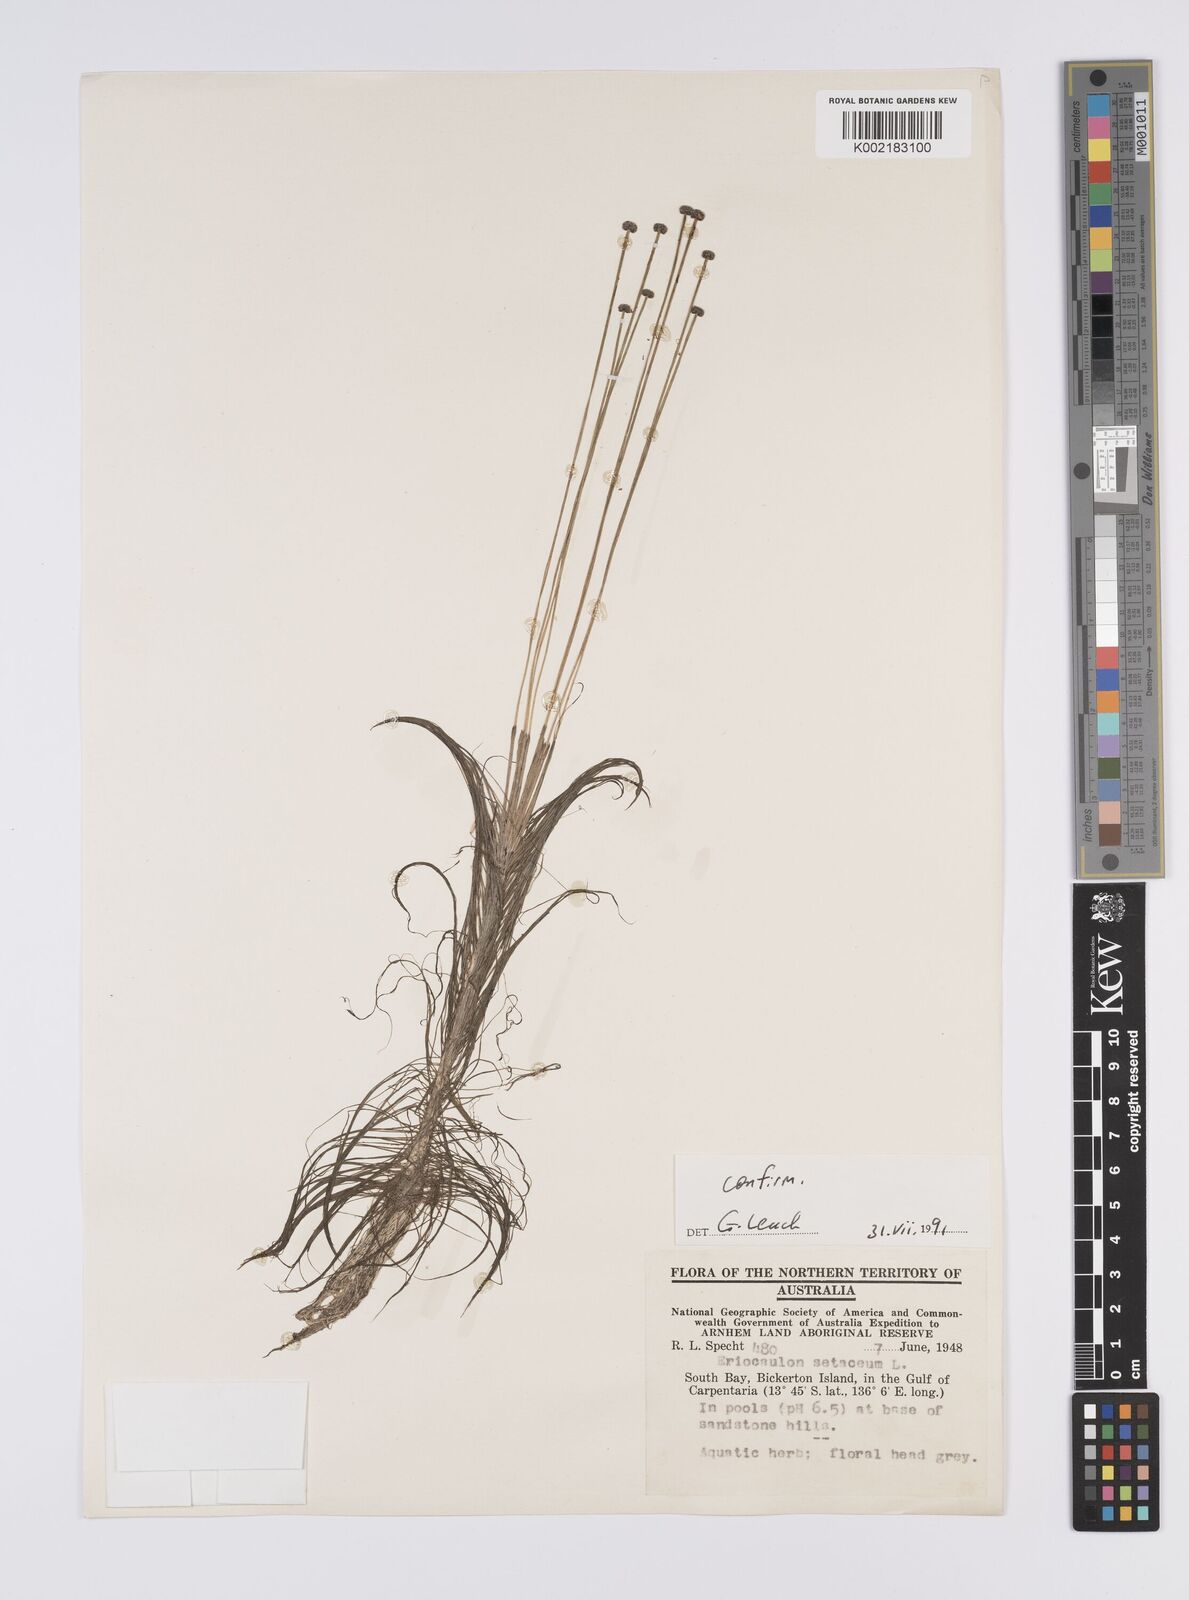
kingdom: Plantae
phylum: Tracheophyta
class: Liliopsida
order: Poales
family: Eriocaulaceae
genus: Eriocaulon
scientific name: Eriocaulon setaceum
